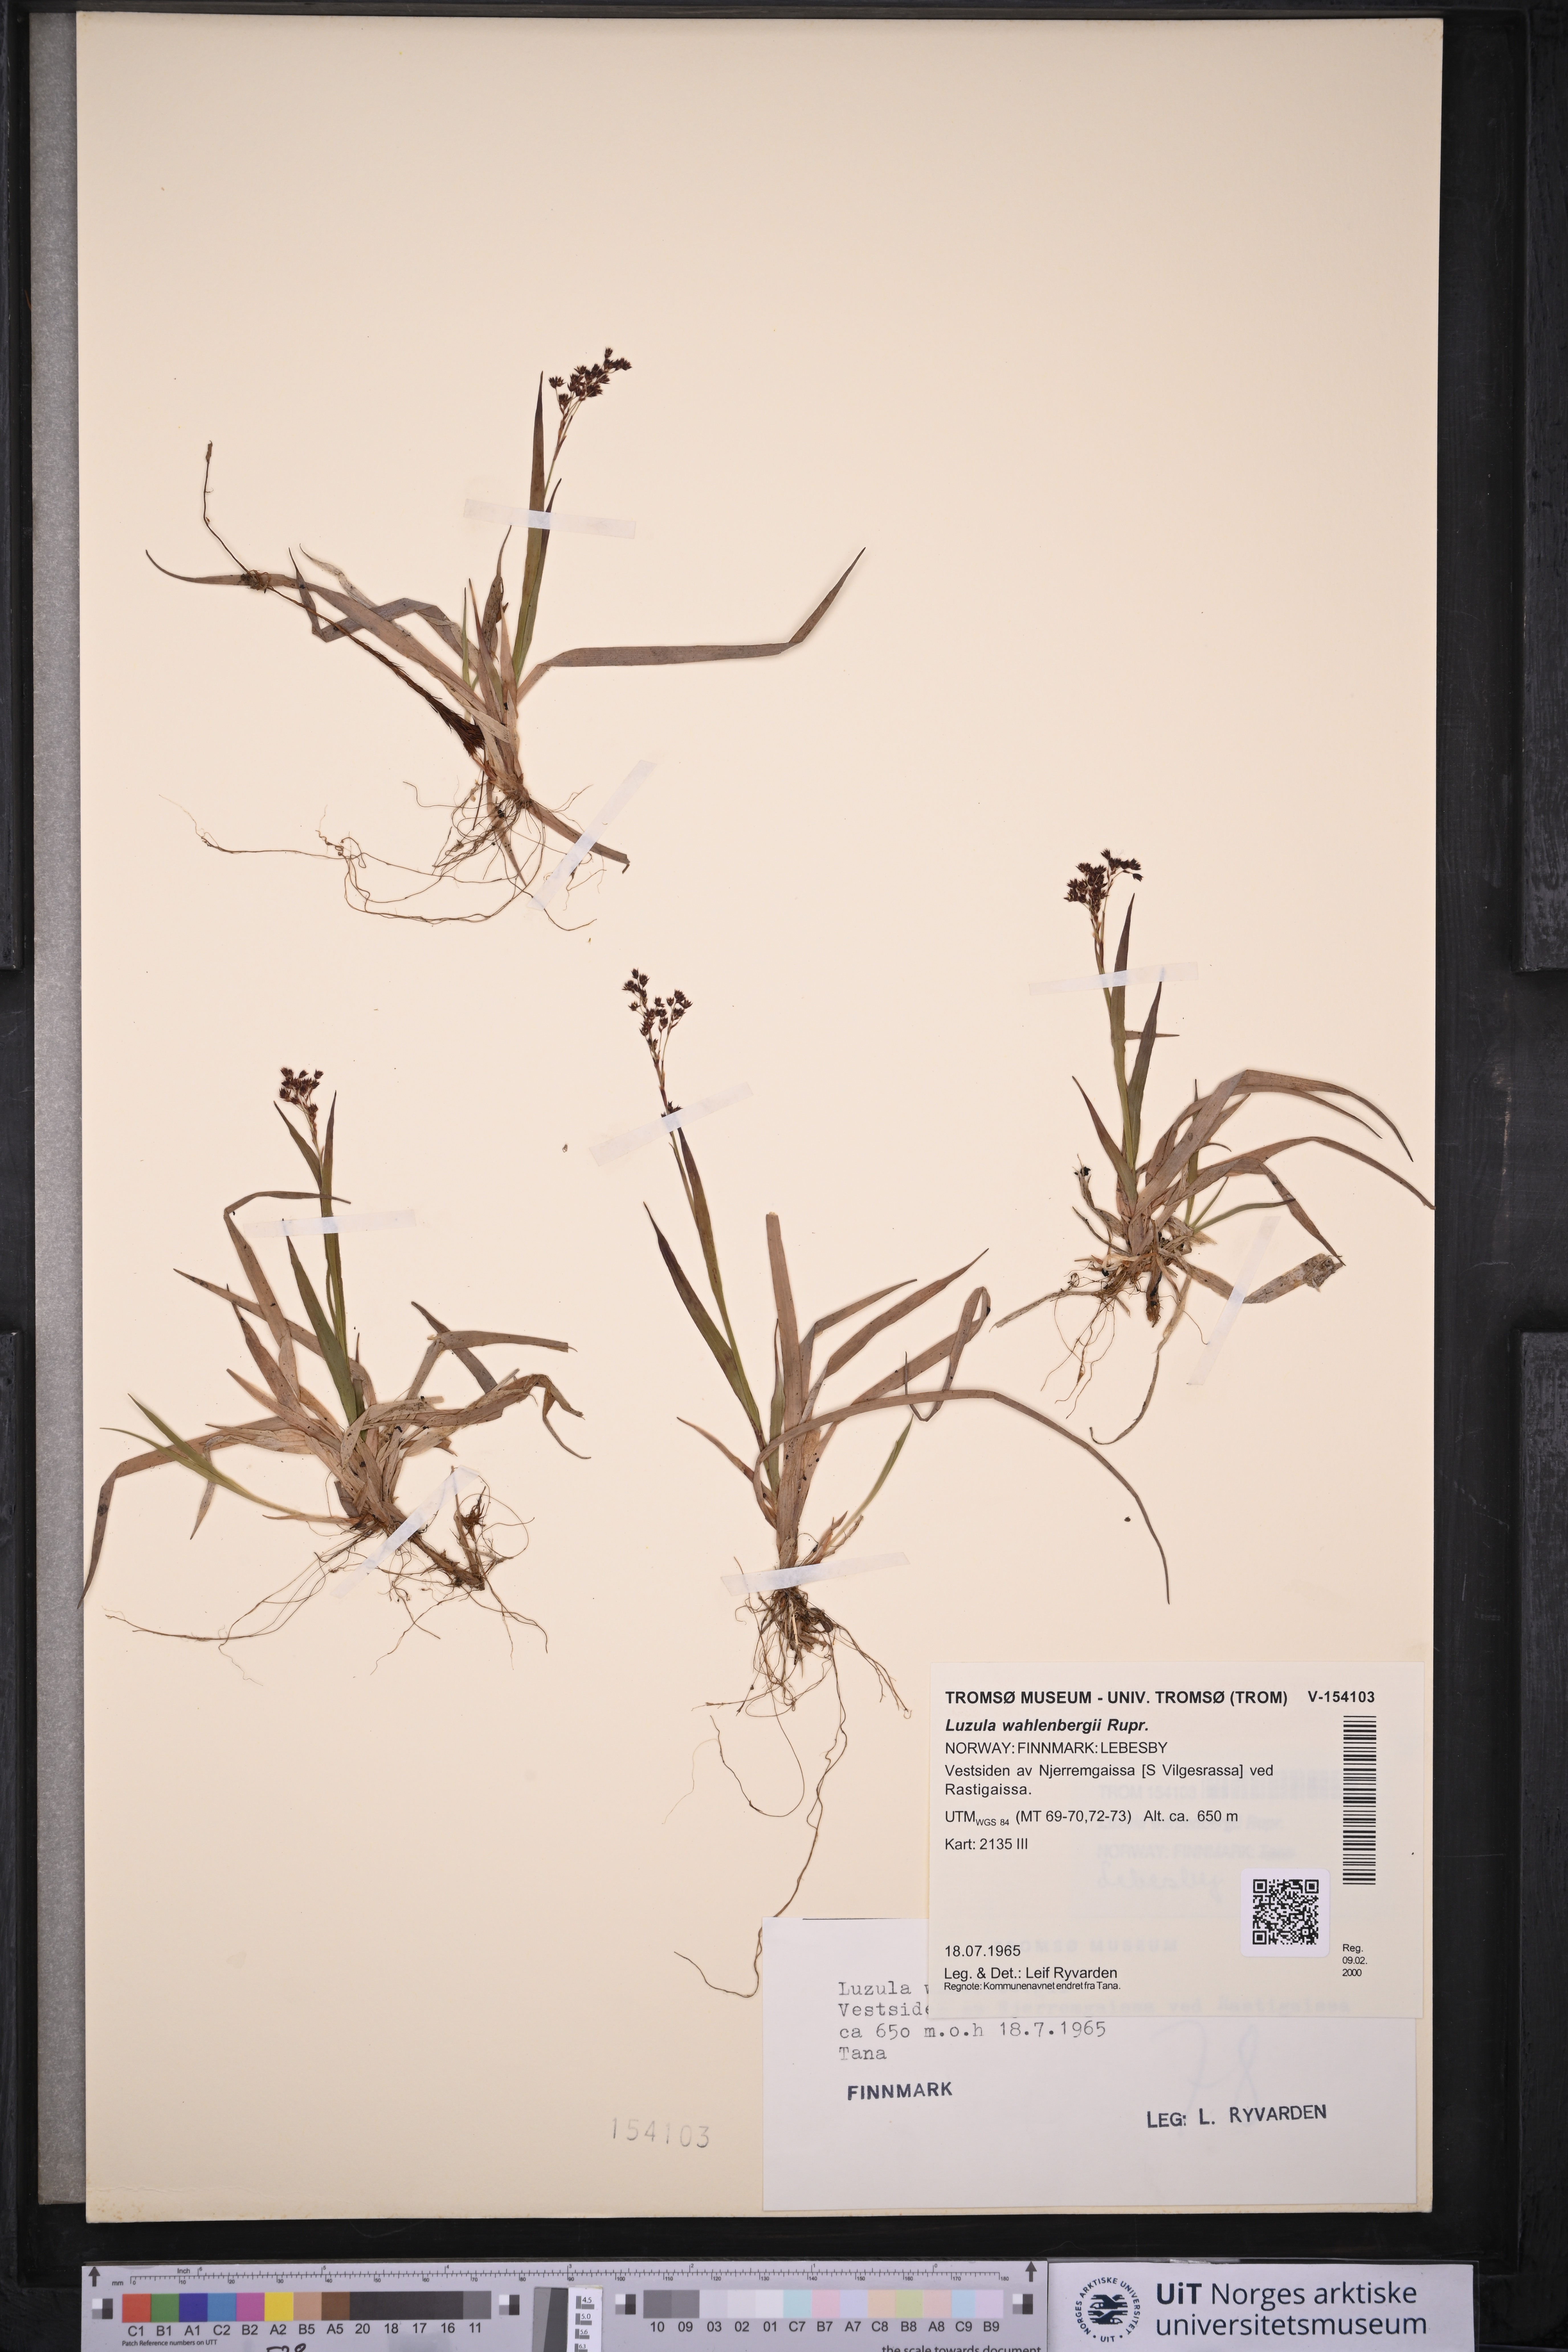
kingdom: Plantae
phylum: Tracheophyta
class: Liliopsida
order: Poales
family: Juncaceae
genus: Luzula
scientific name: Luzula wahlenbergii
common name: Wahlenberg's wood-rush
